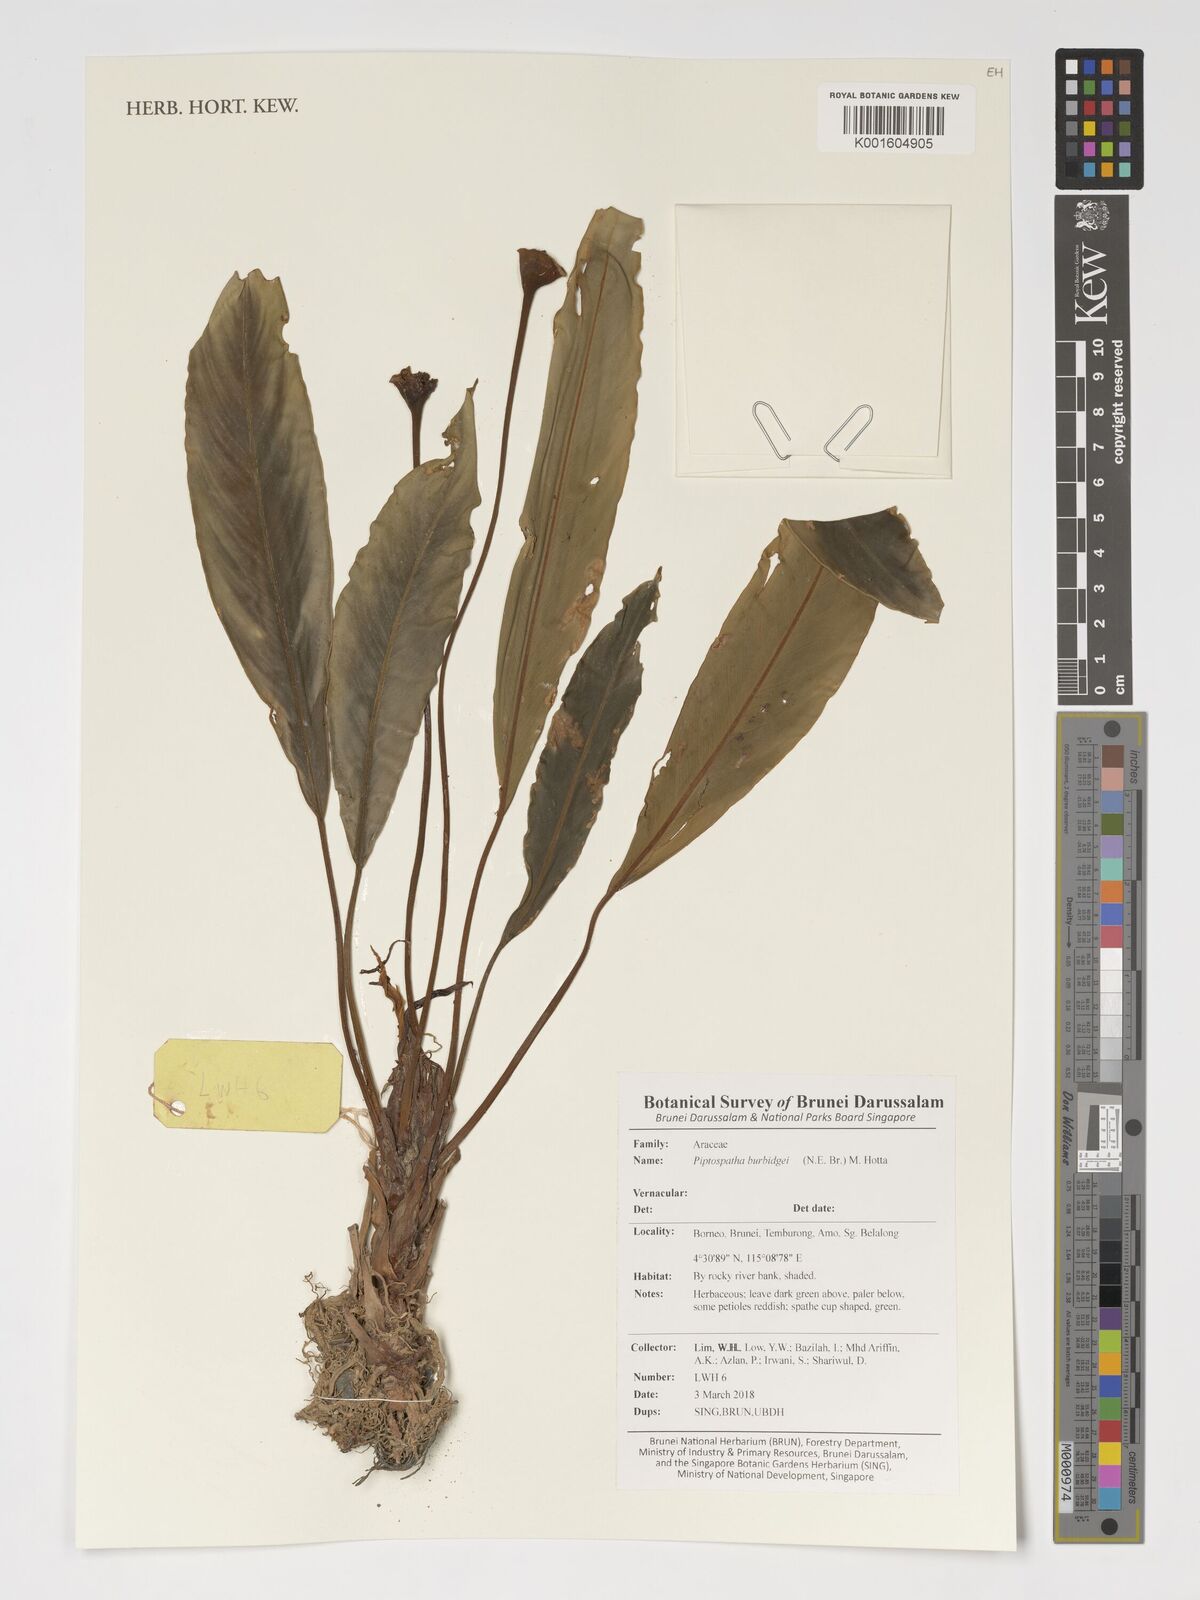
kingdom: Plantae
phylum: Tracheophyta
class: Liliopsida
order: Alismatales
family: Araceae
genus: Gamogyne
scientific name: Gamogyne burbidgei
